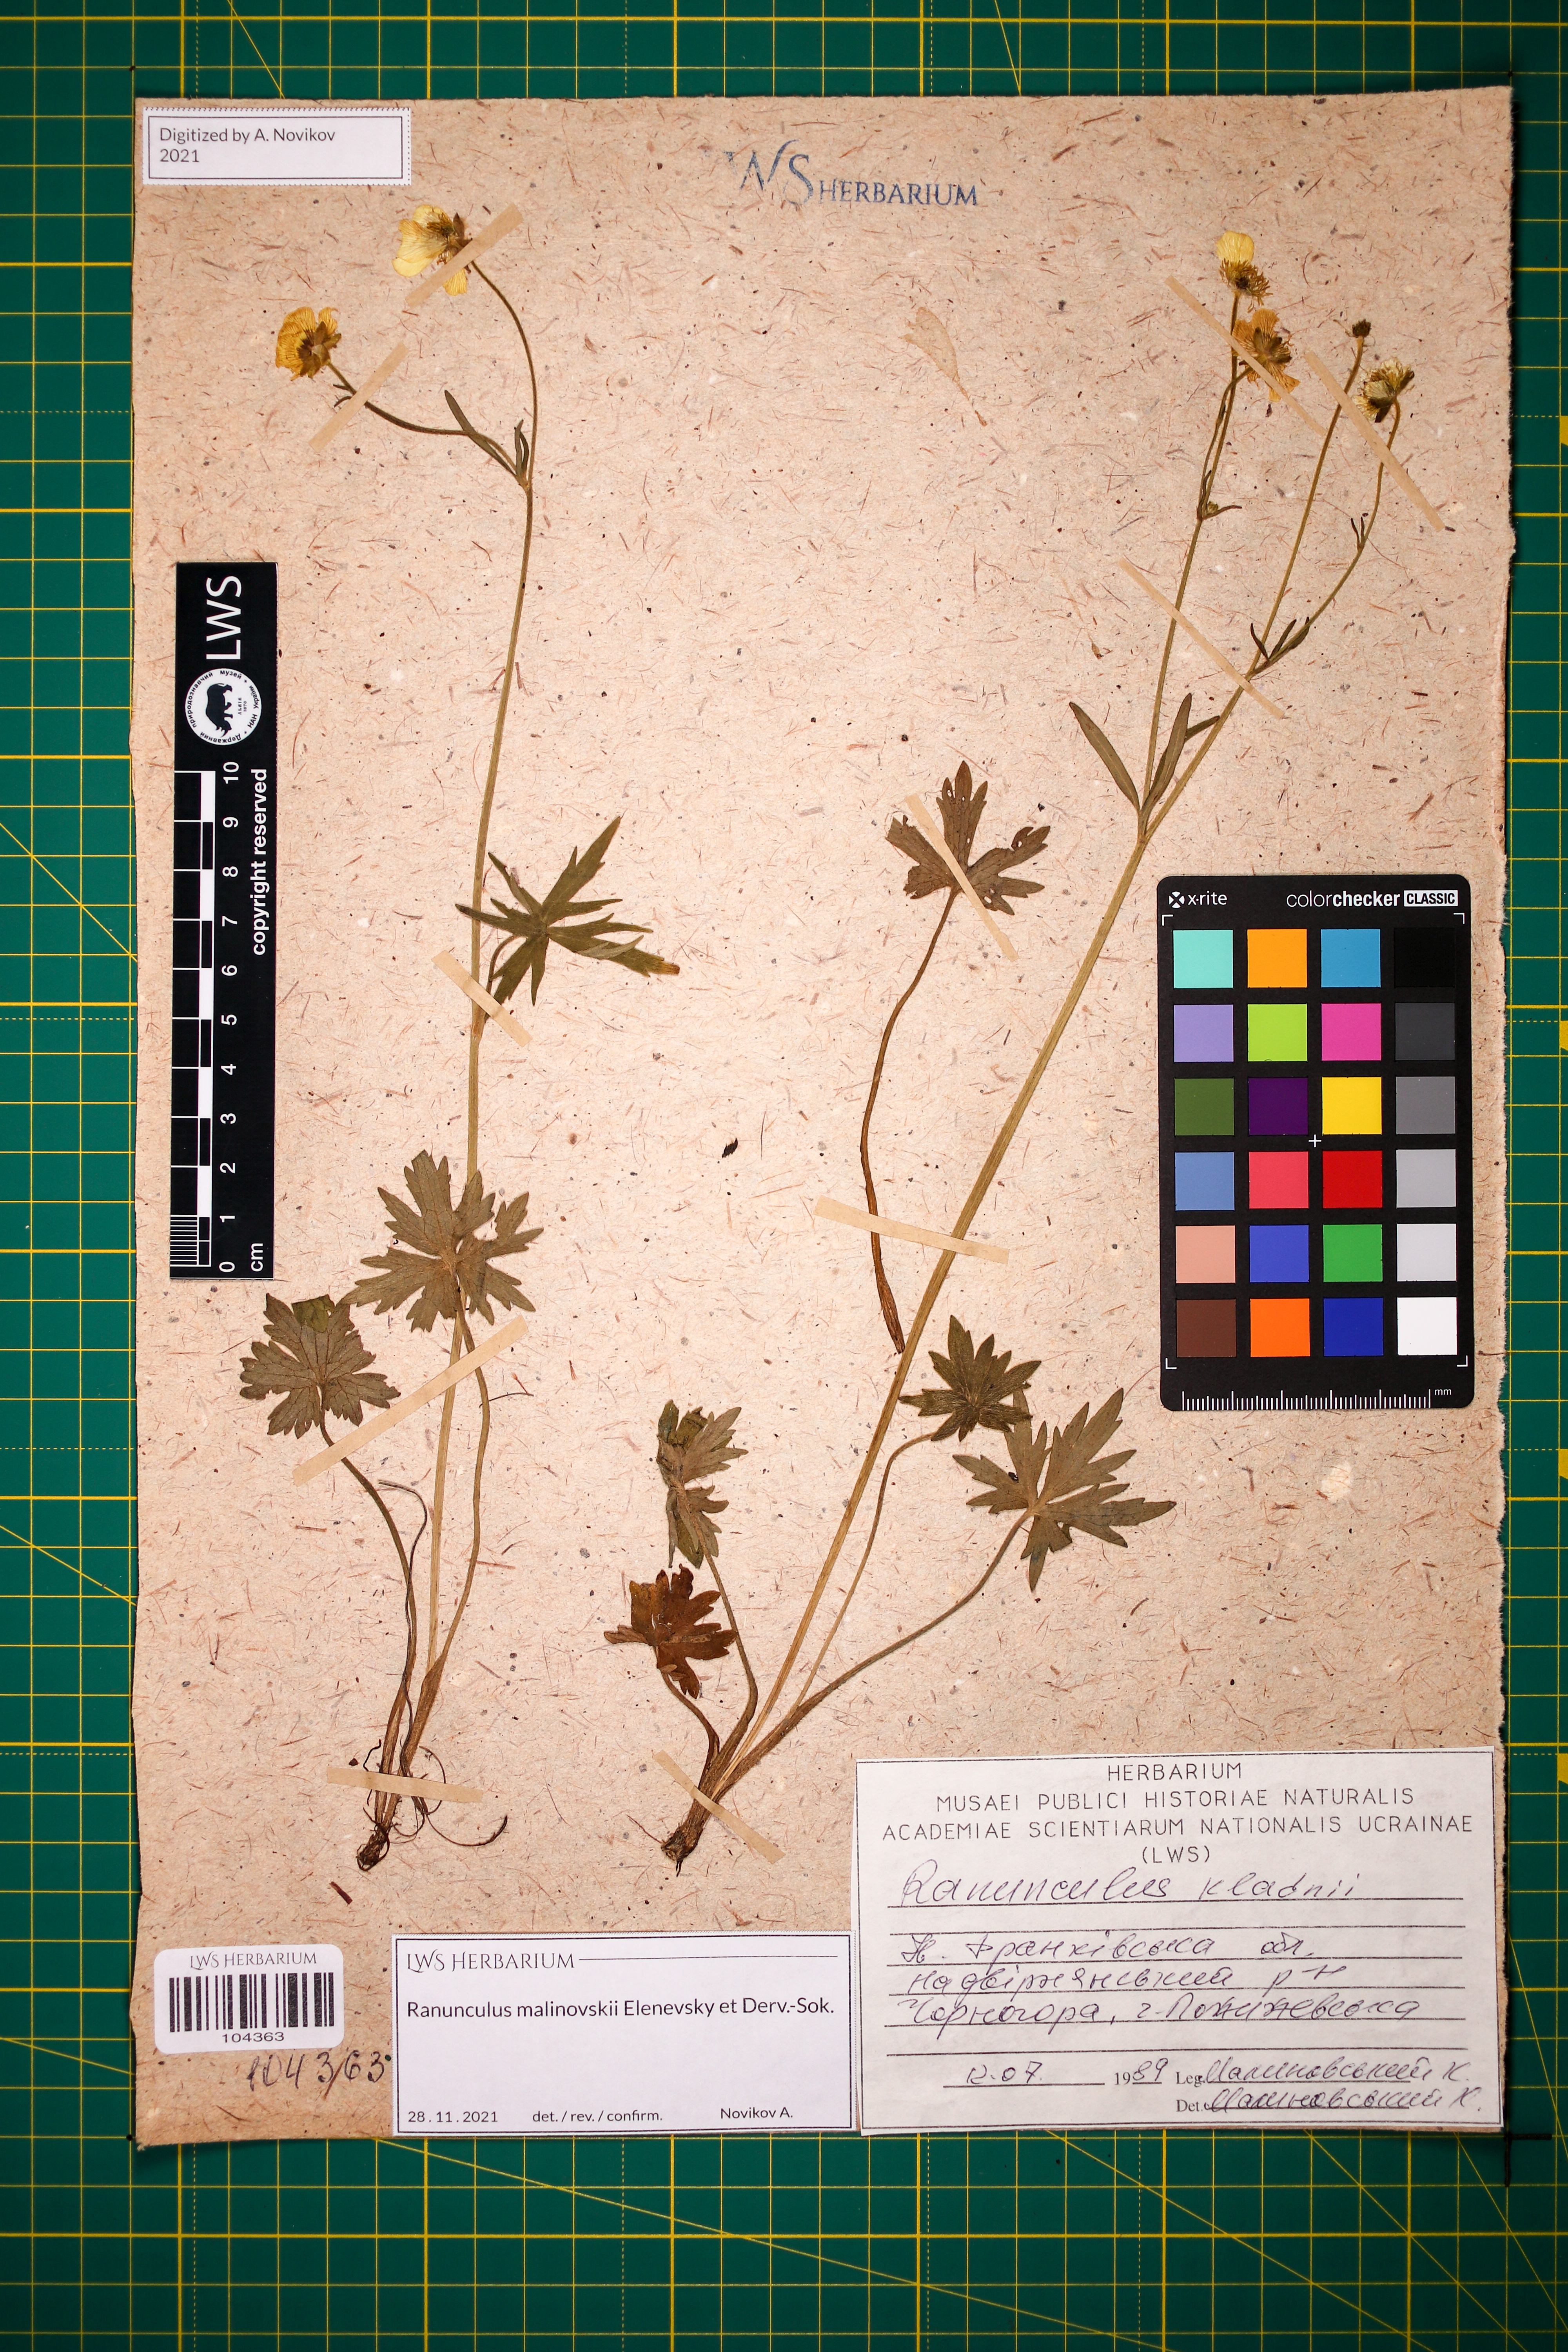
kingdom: Plantae
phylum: Tracheophyta
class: Magnoliopsida
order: Ranunculales
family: Ranunculaceae
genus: Ranunculus
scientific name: Ranunculus malinovskii
